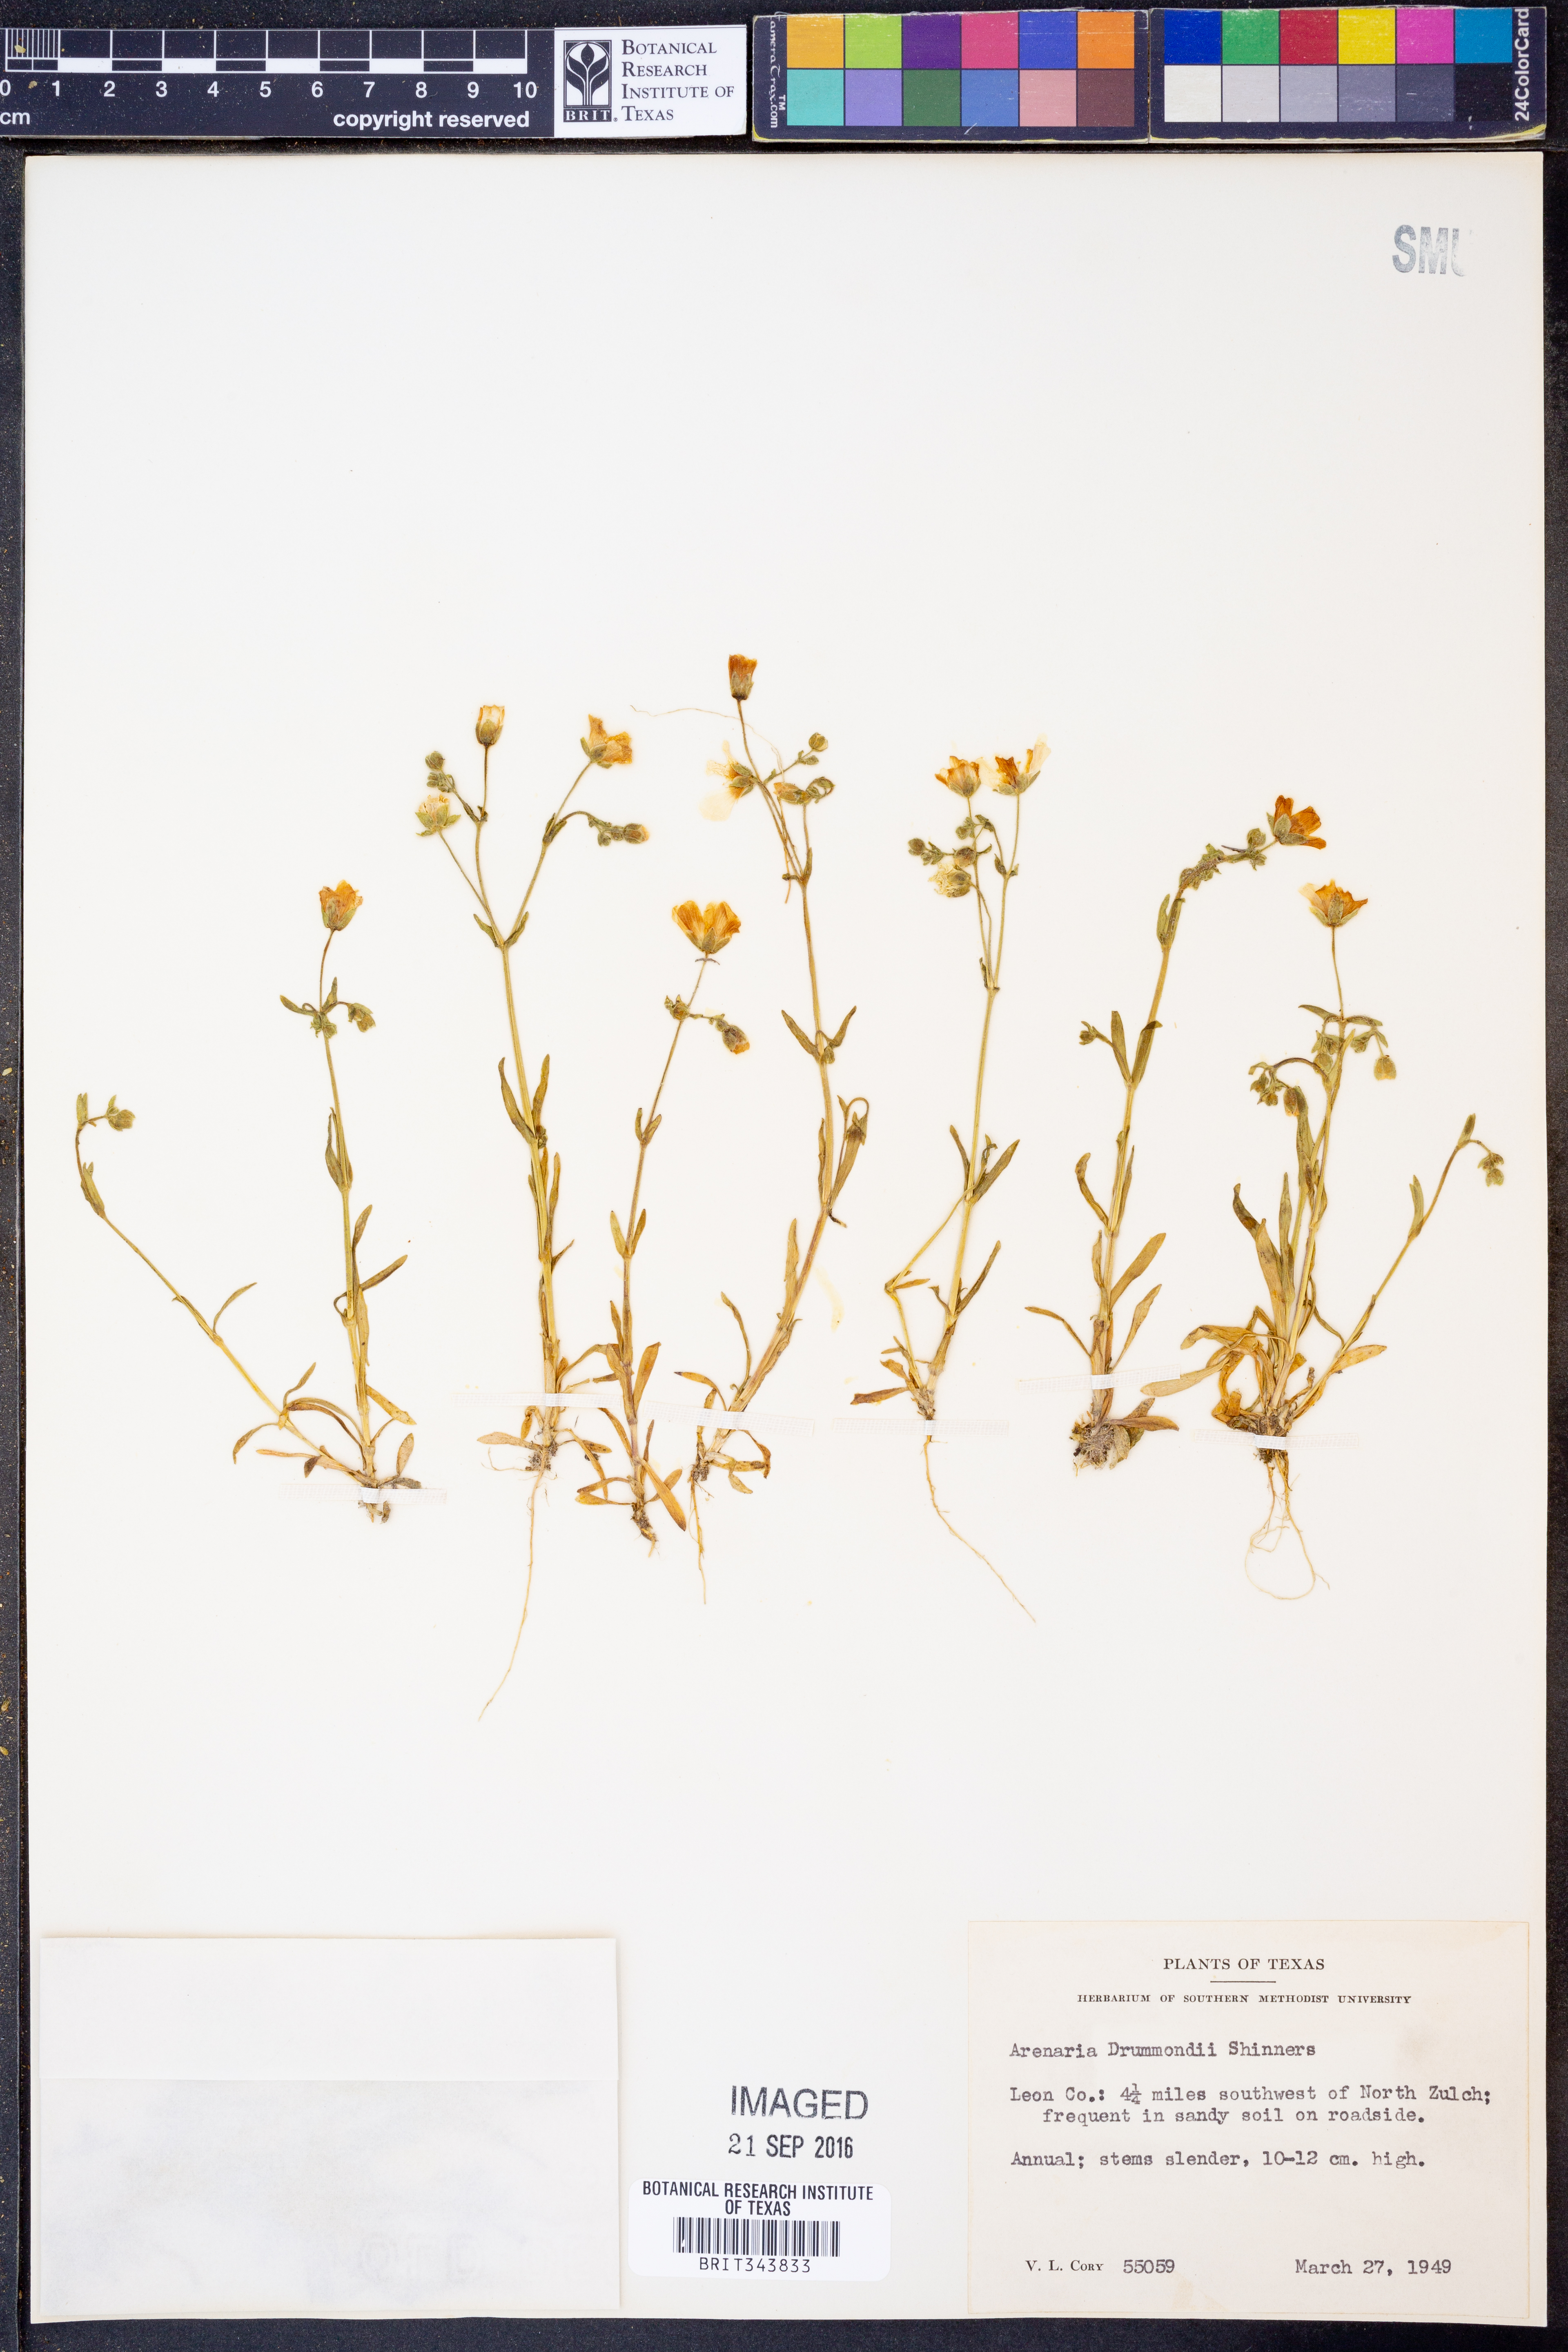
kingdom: Plantae
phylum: Tracheophyta
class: Magnoliopsida
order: Caryophyllales
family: Caryophyllaceae
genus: Geocarpon
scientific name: Geocarpon nuttallii
